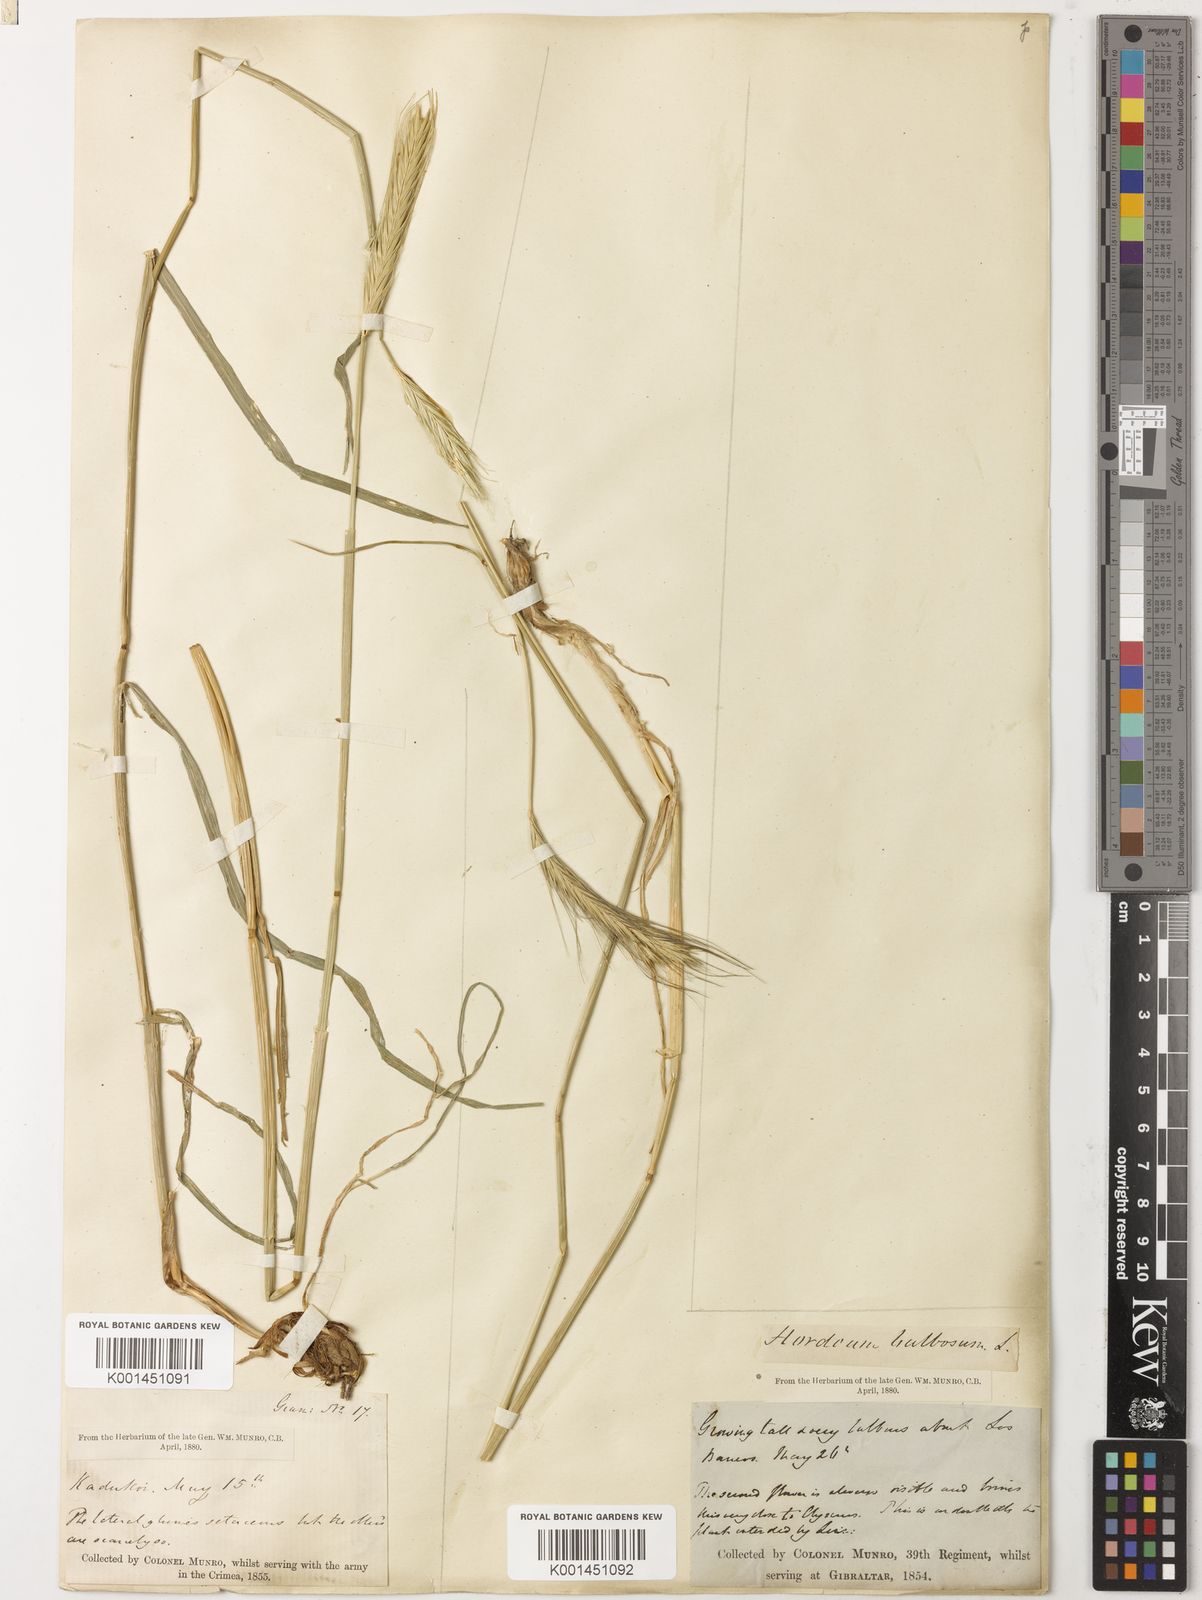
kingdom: Plantae
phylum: Tracheophyta
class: Liliopsida
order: Poales
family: Poaceae
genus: Hordeum
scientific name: Hordeum bulbosum
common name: Bulbous barley
